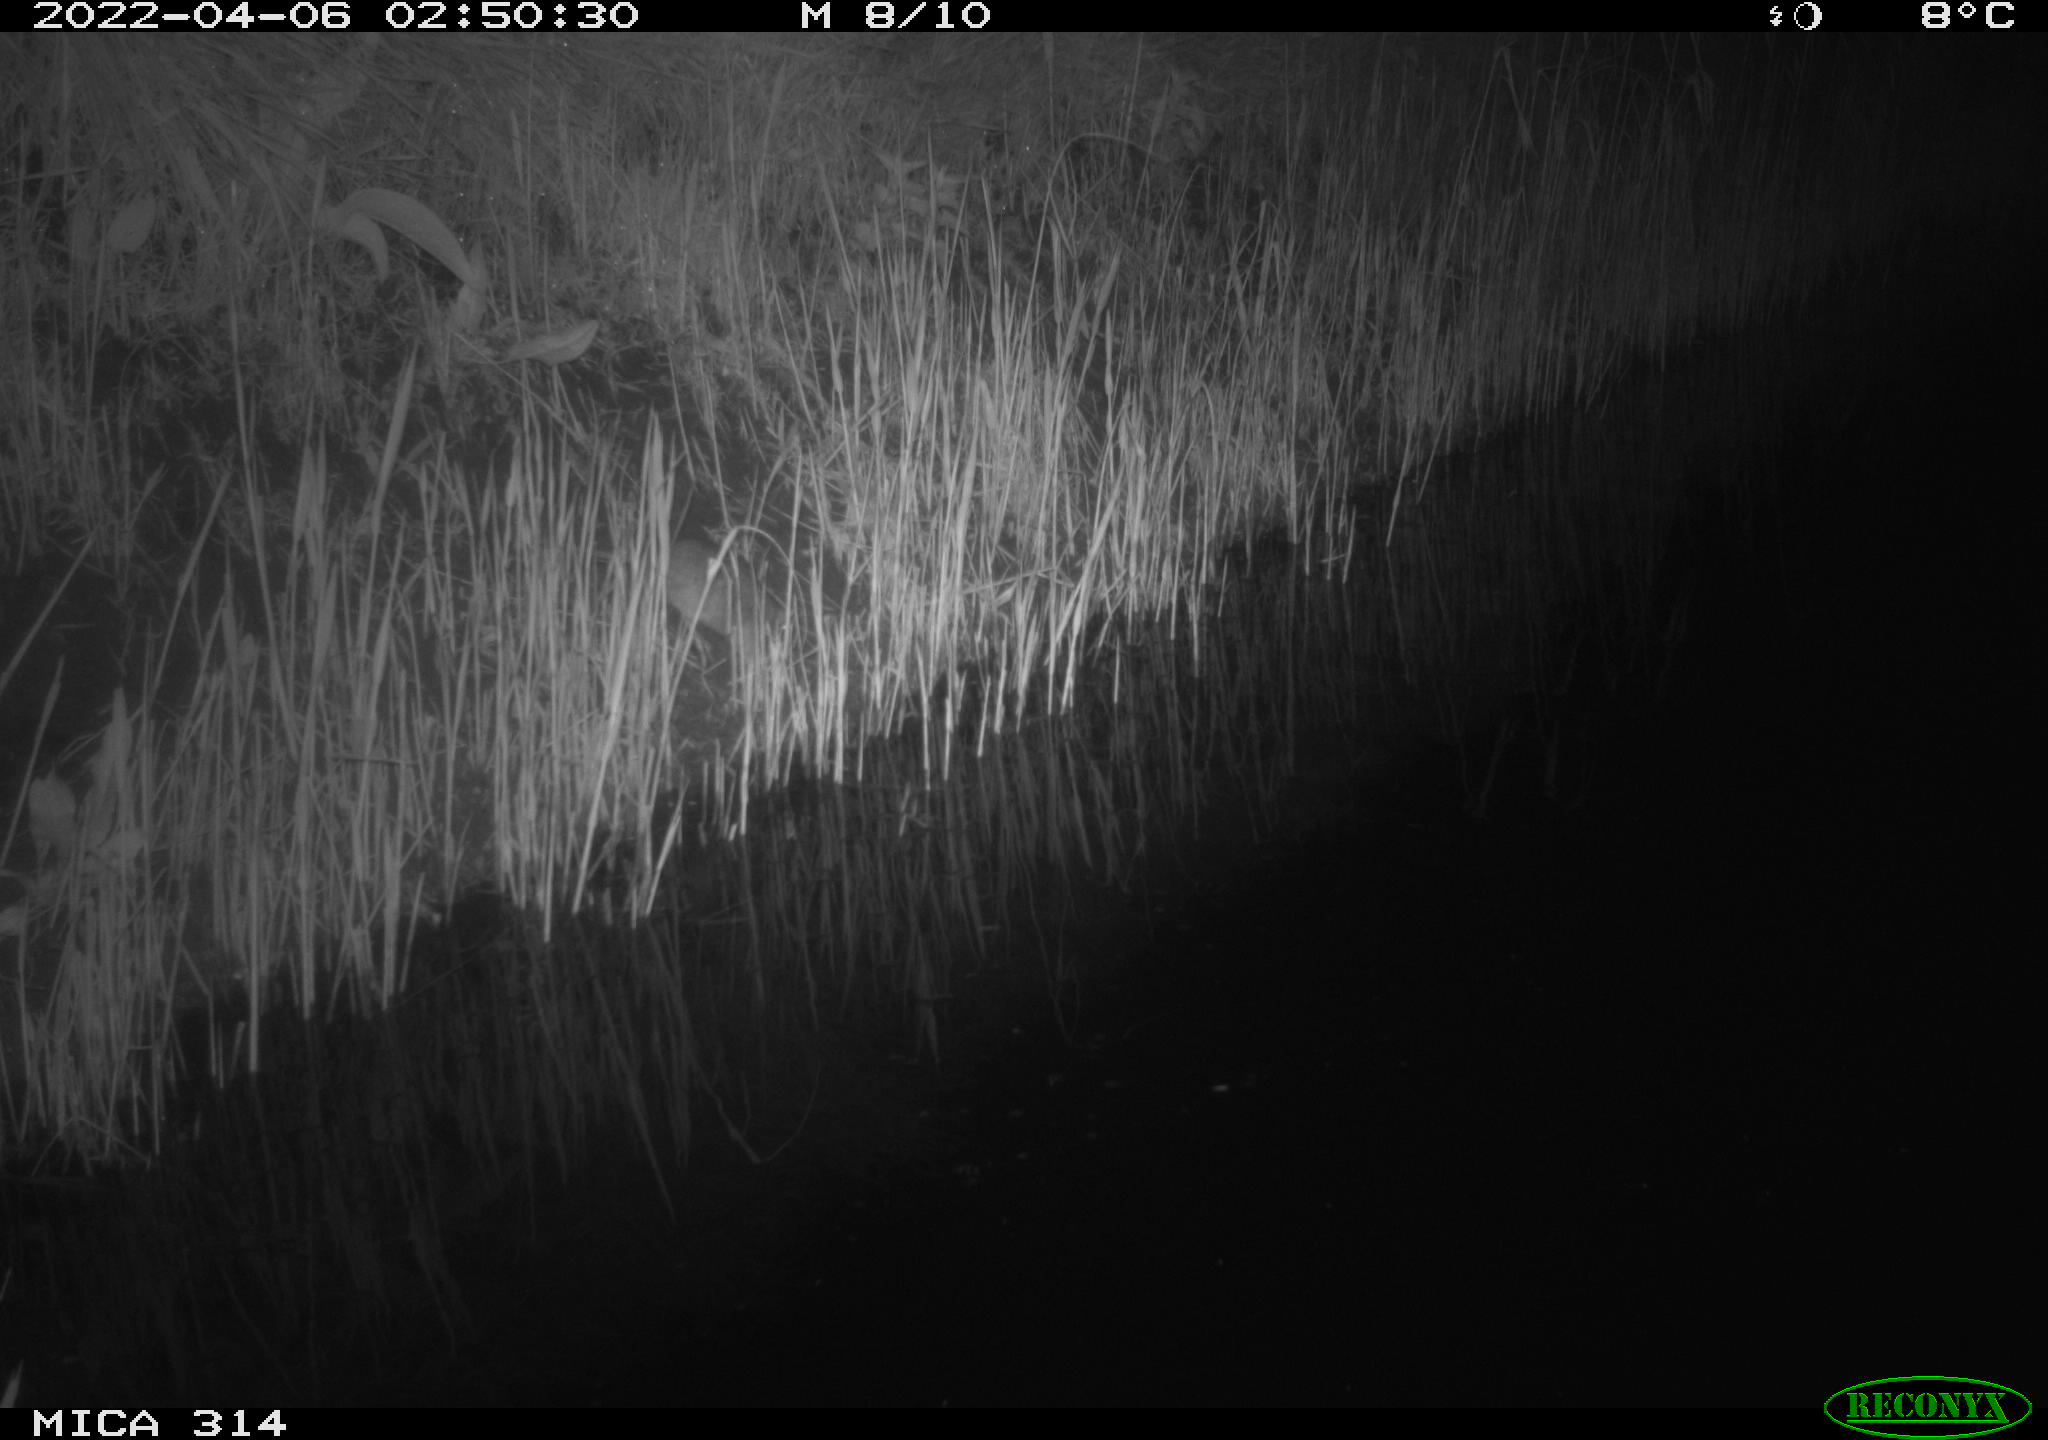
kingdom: Animalia
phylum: Chordata
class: Mammalia
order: Rodentia
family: Cricetidae
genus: Ondatra
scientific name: Ondatra zibethicus
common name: Muskrat
